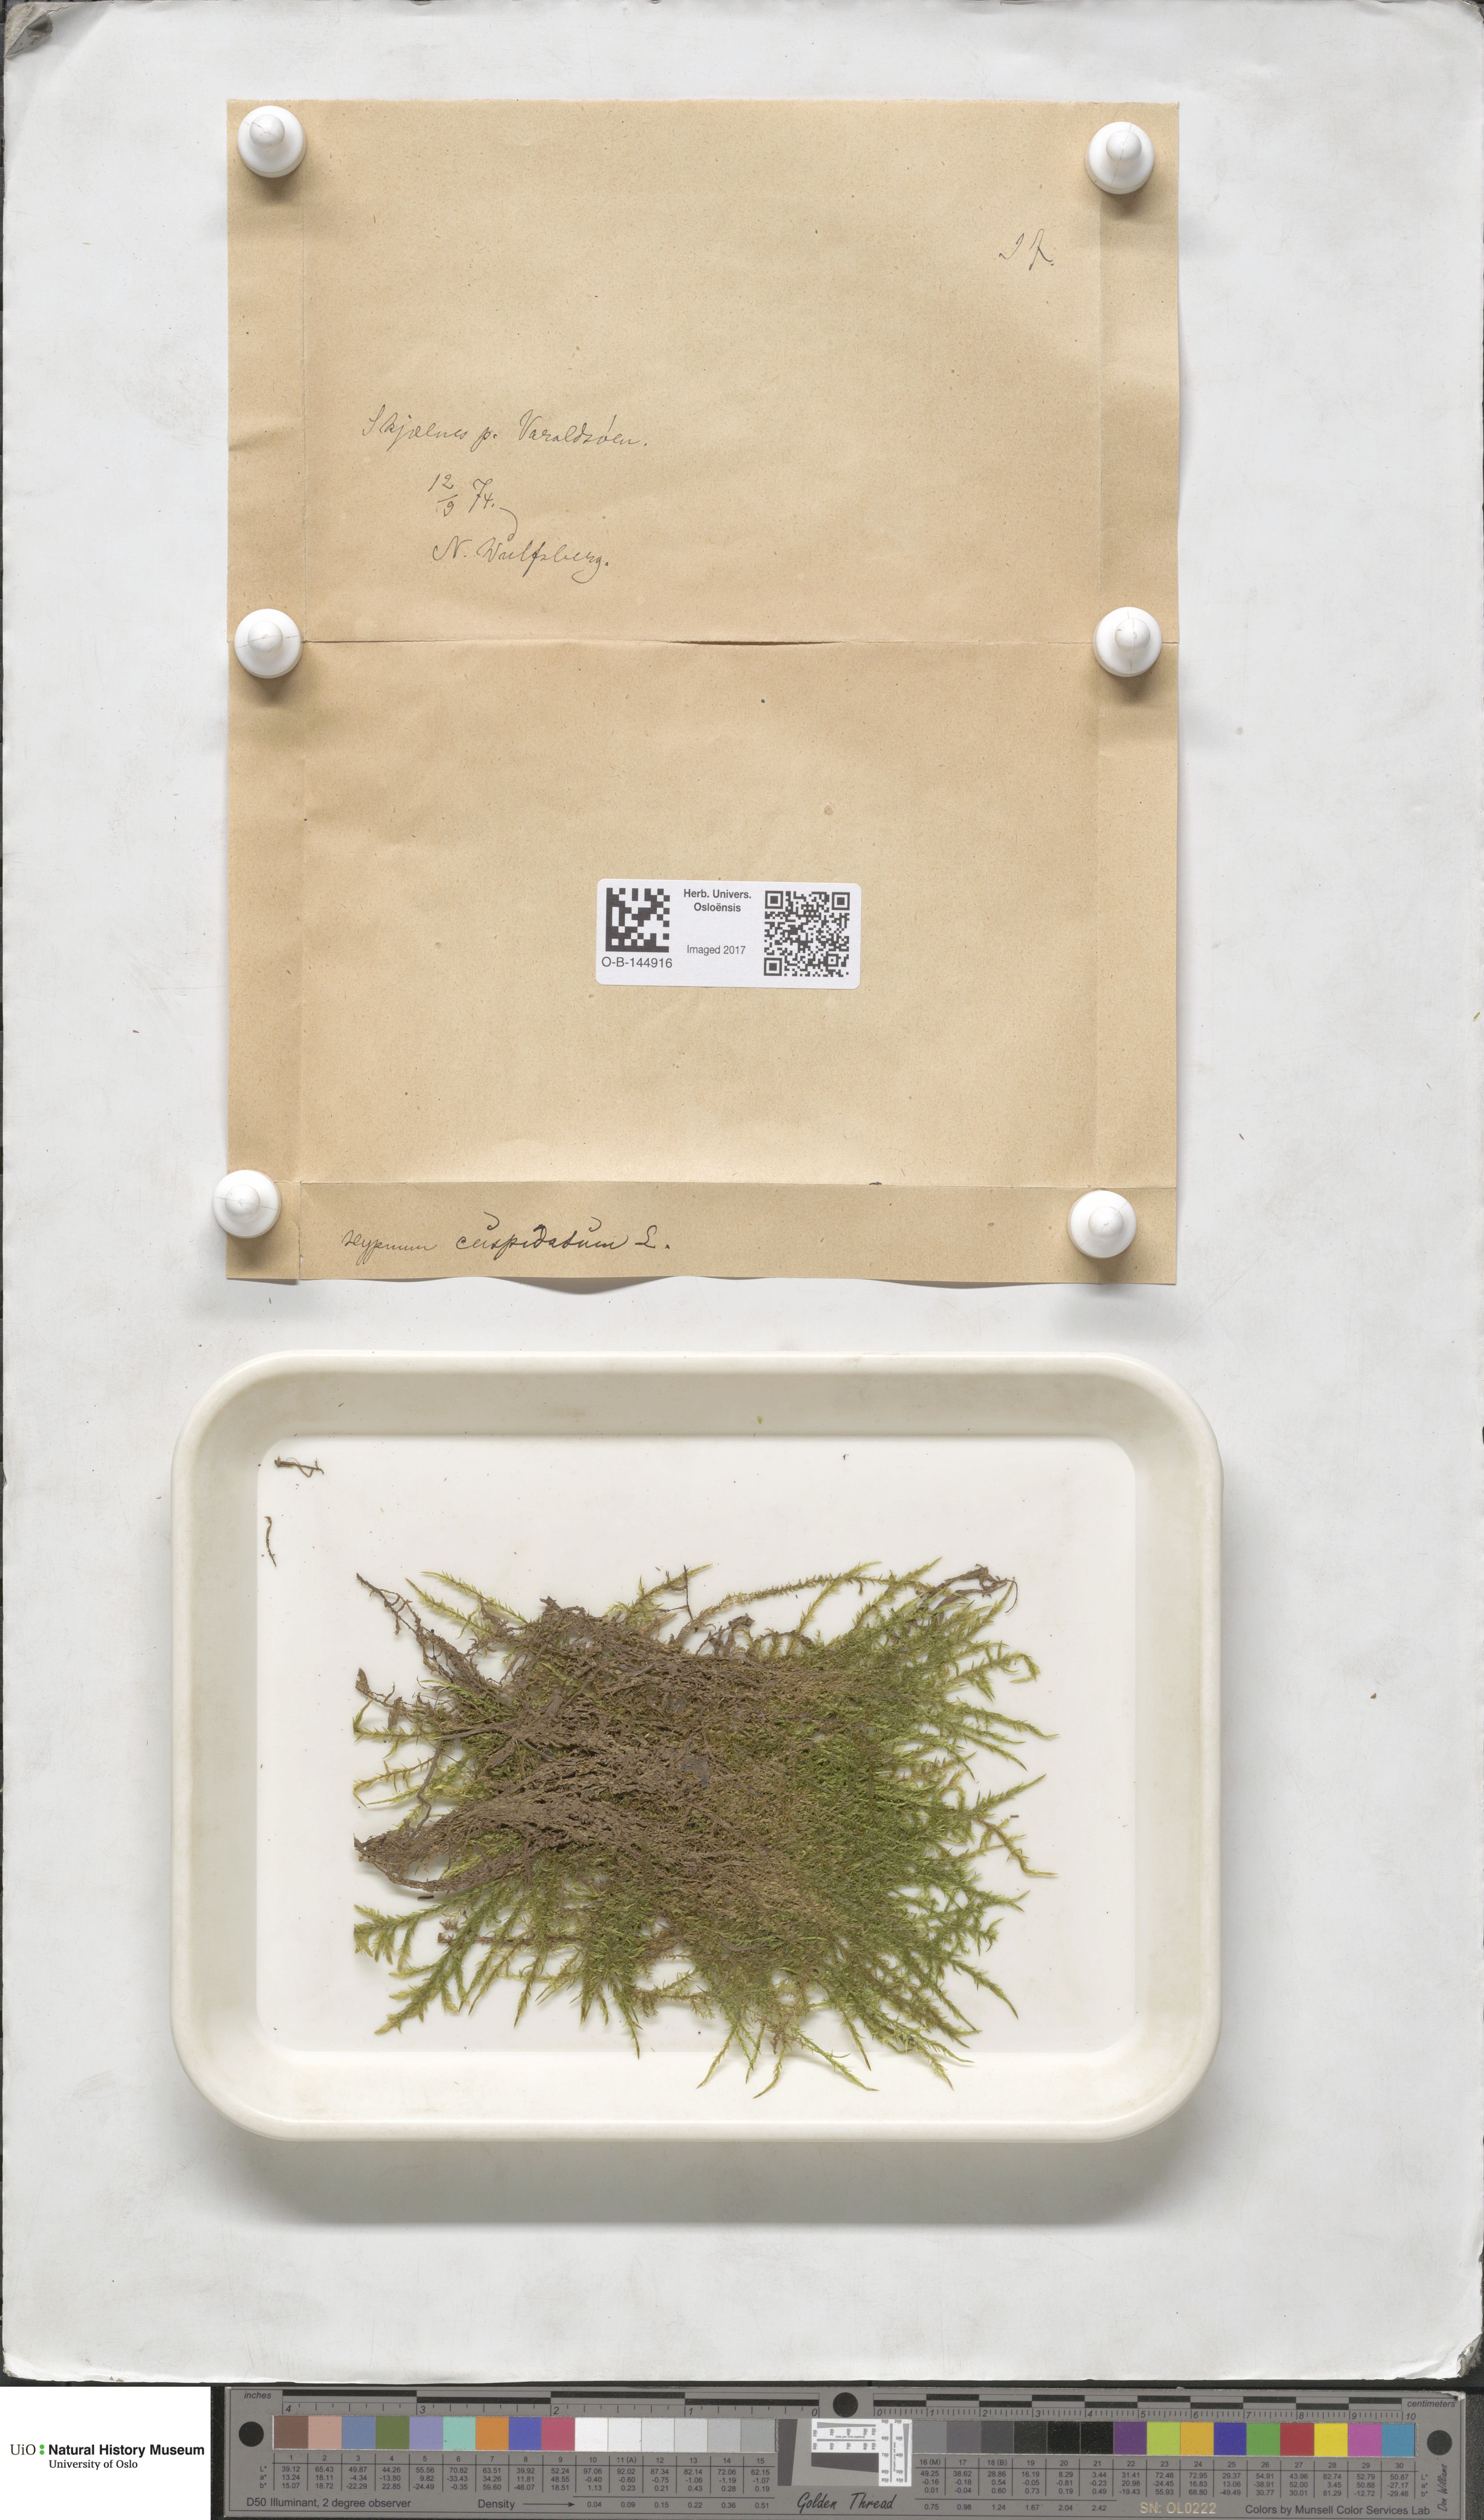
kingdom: Plantae
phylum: Bryophyta
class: Bryopsida
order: Hypnales
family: Pylaisiaceae
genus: Calliergonella
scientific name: Calliergonella cuspidata
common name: Common large wetland moss
